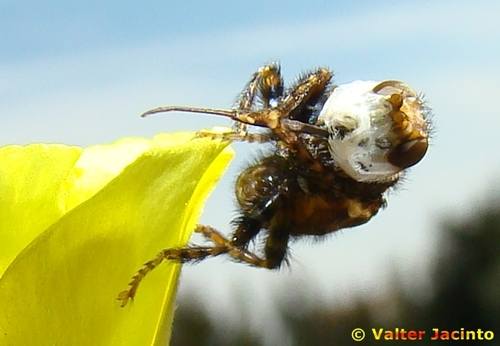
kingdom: Animalia
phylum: Arthropoda
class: Insecta
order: Diptera
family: Conopidae
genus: Myopa
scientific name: Myopa picta
